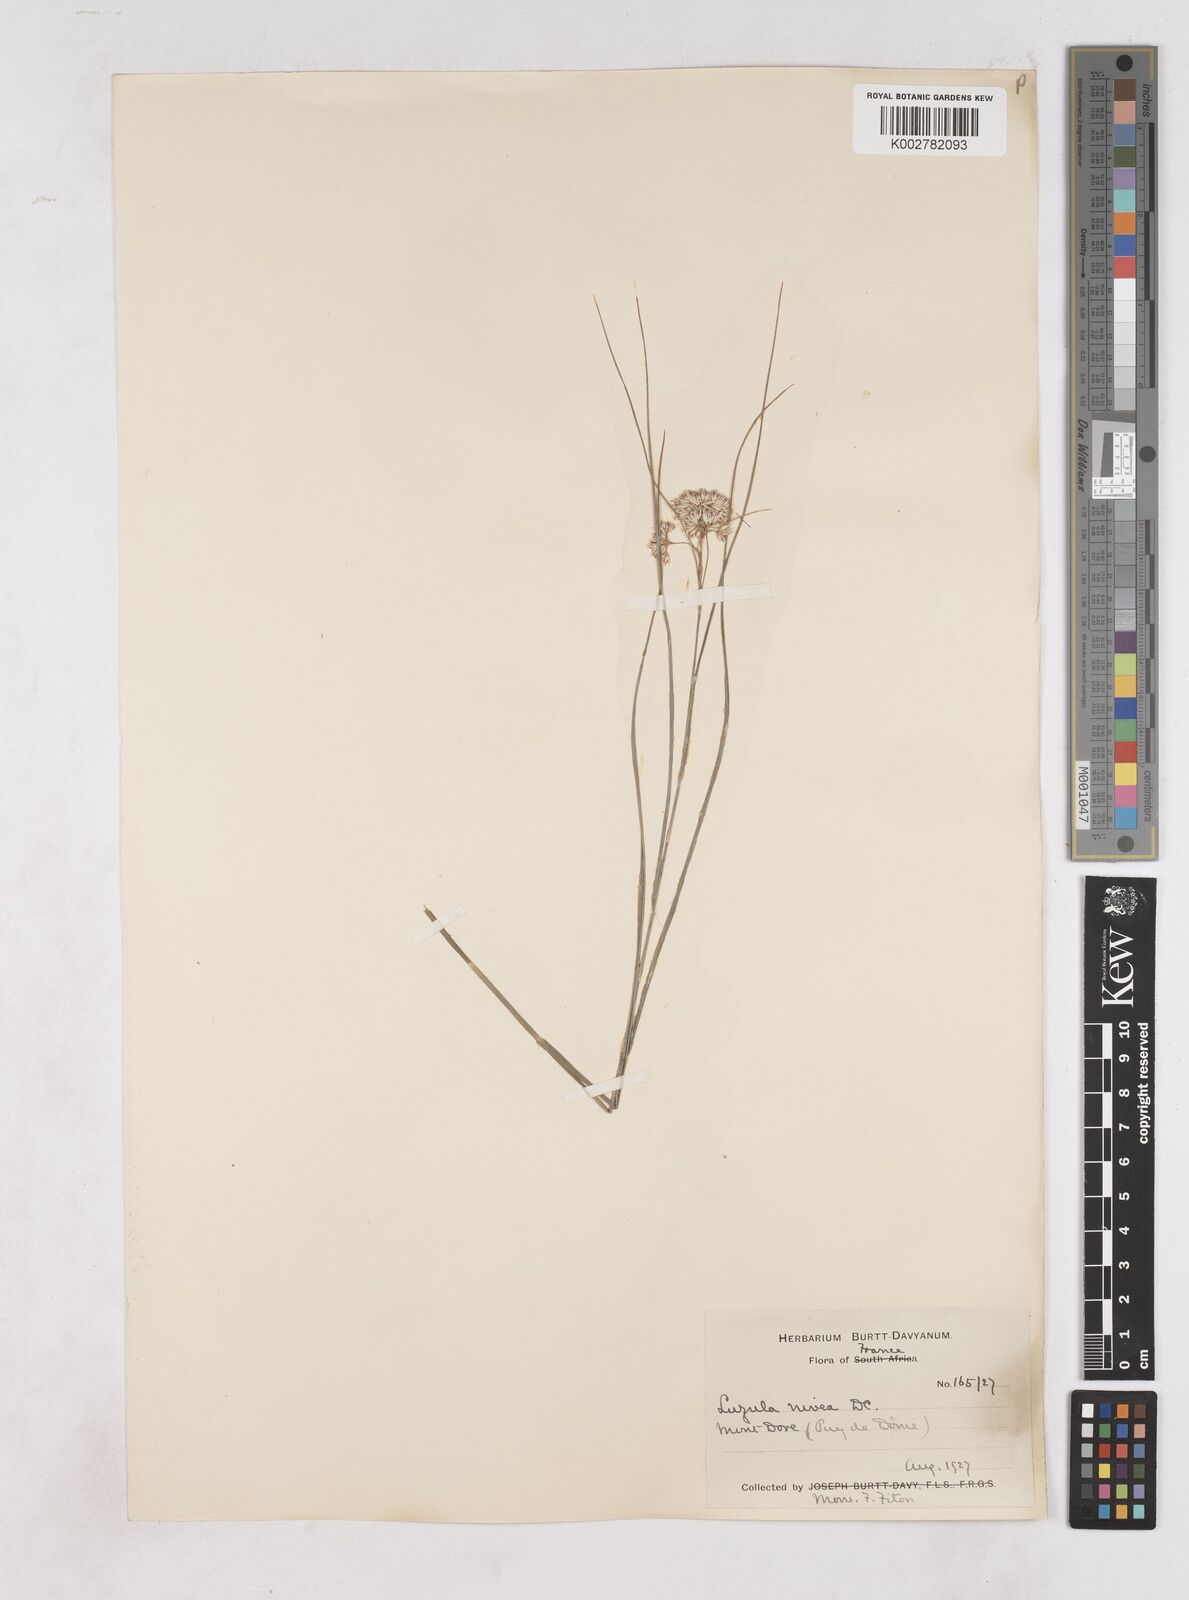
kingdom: Plantae
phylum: Tracheophyta
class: Liliopsida
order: Poales
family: Juncaceae
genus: Luzula
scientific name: Luzula nivea
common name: Snow-white wood-rush
